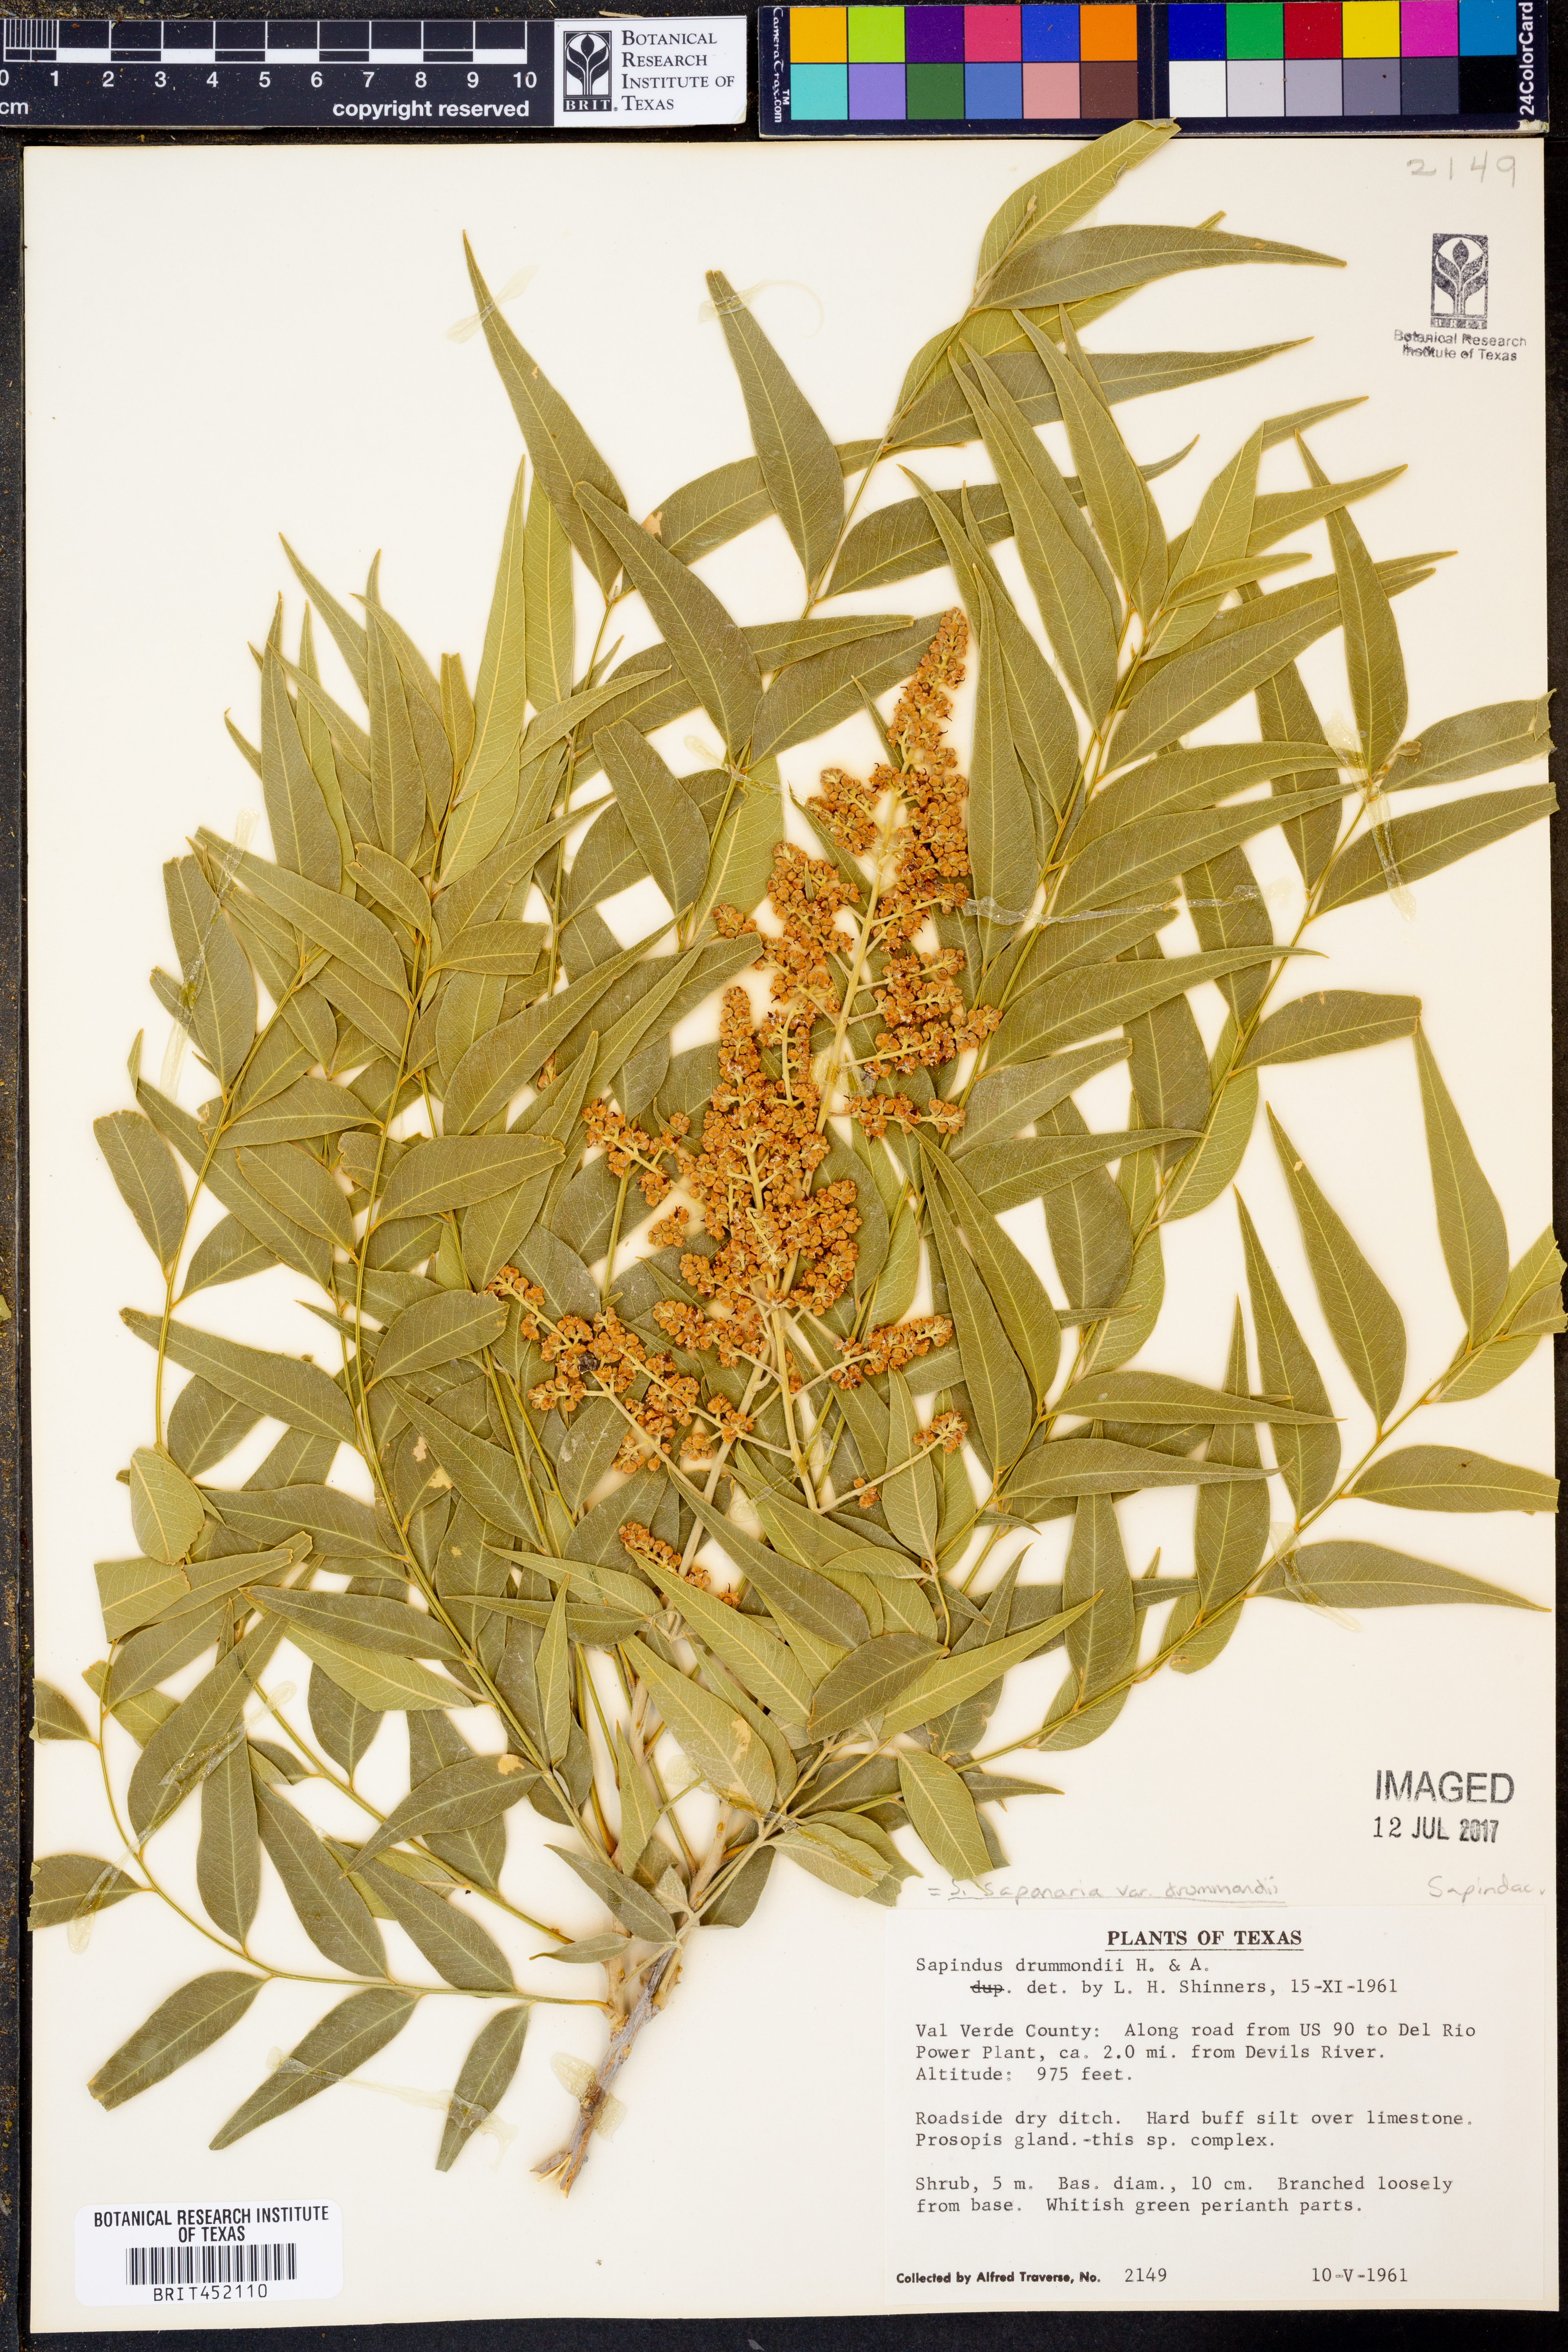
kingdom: Plantae
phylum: Tracheophyta
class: Magnoliopsida
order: Sapindales
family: Sapindaceae
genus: Sapindus
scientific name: Sapindus drummondii
